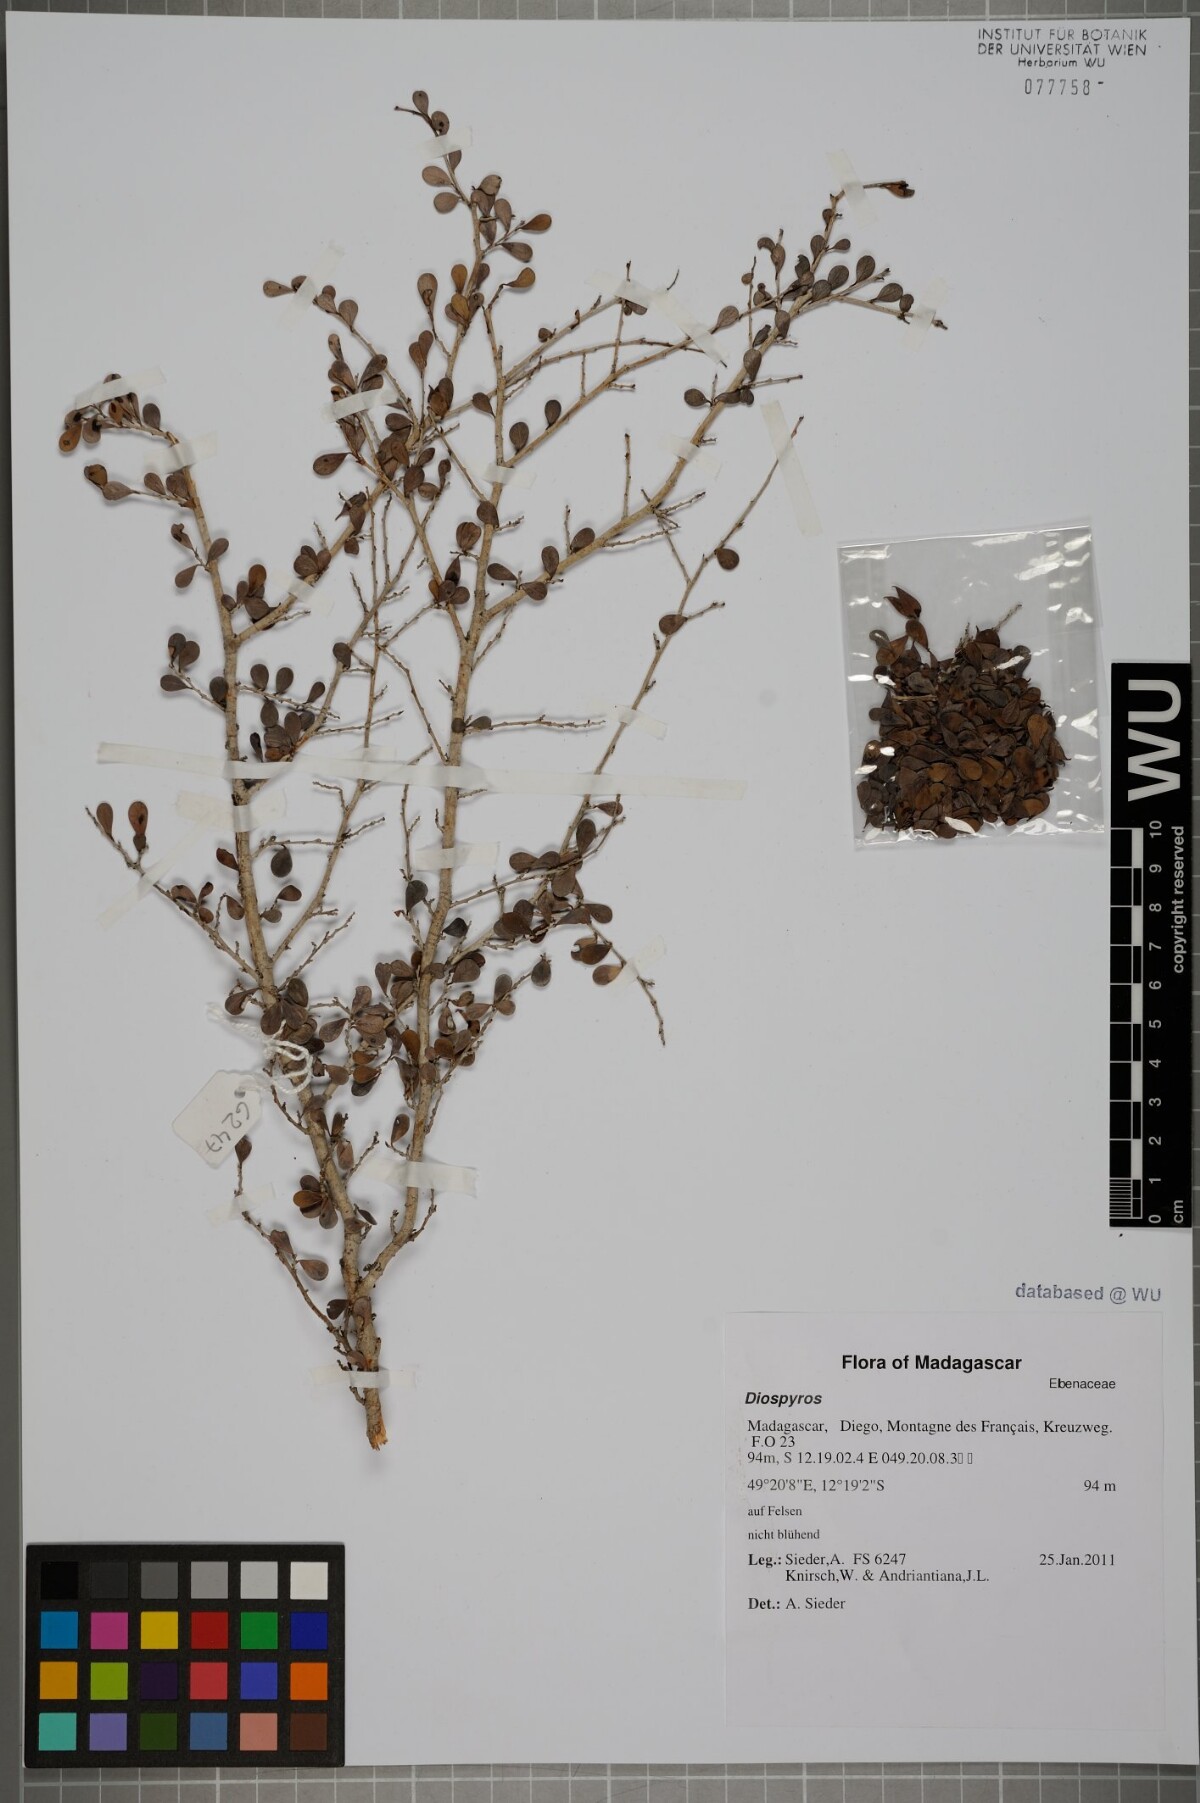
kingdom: Plantae
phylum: Tracheophyta
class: Magnoliopsida
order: Ericales
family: Ebenaceae
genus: Diospyros
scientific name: Diospyros
